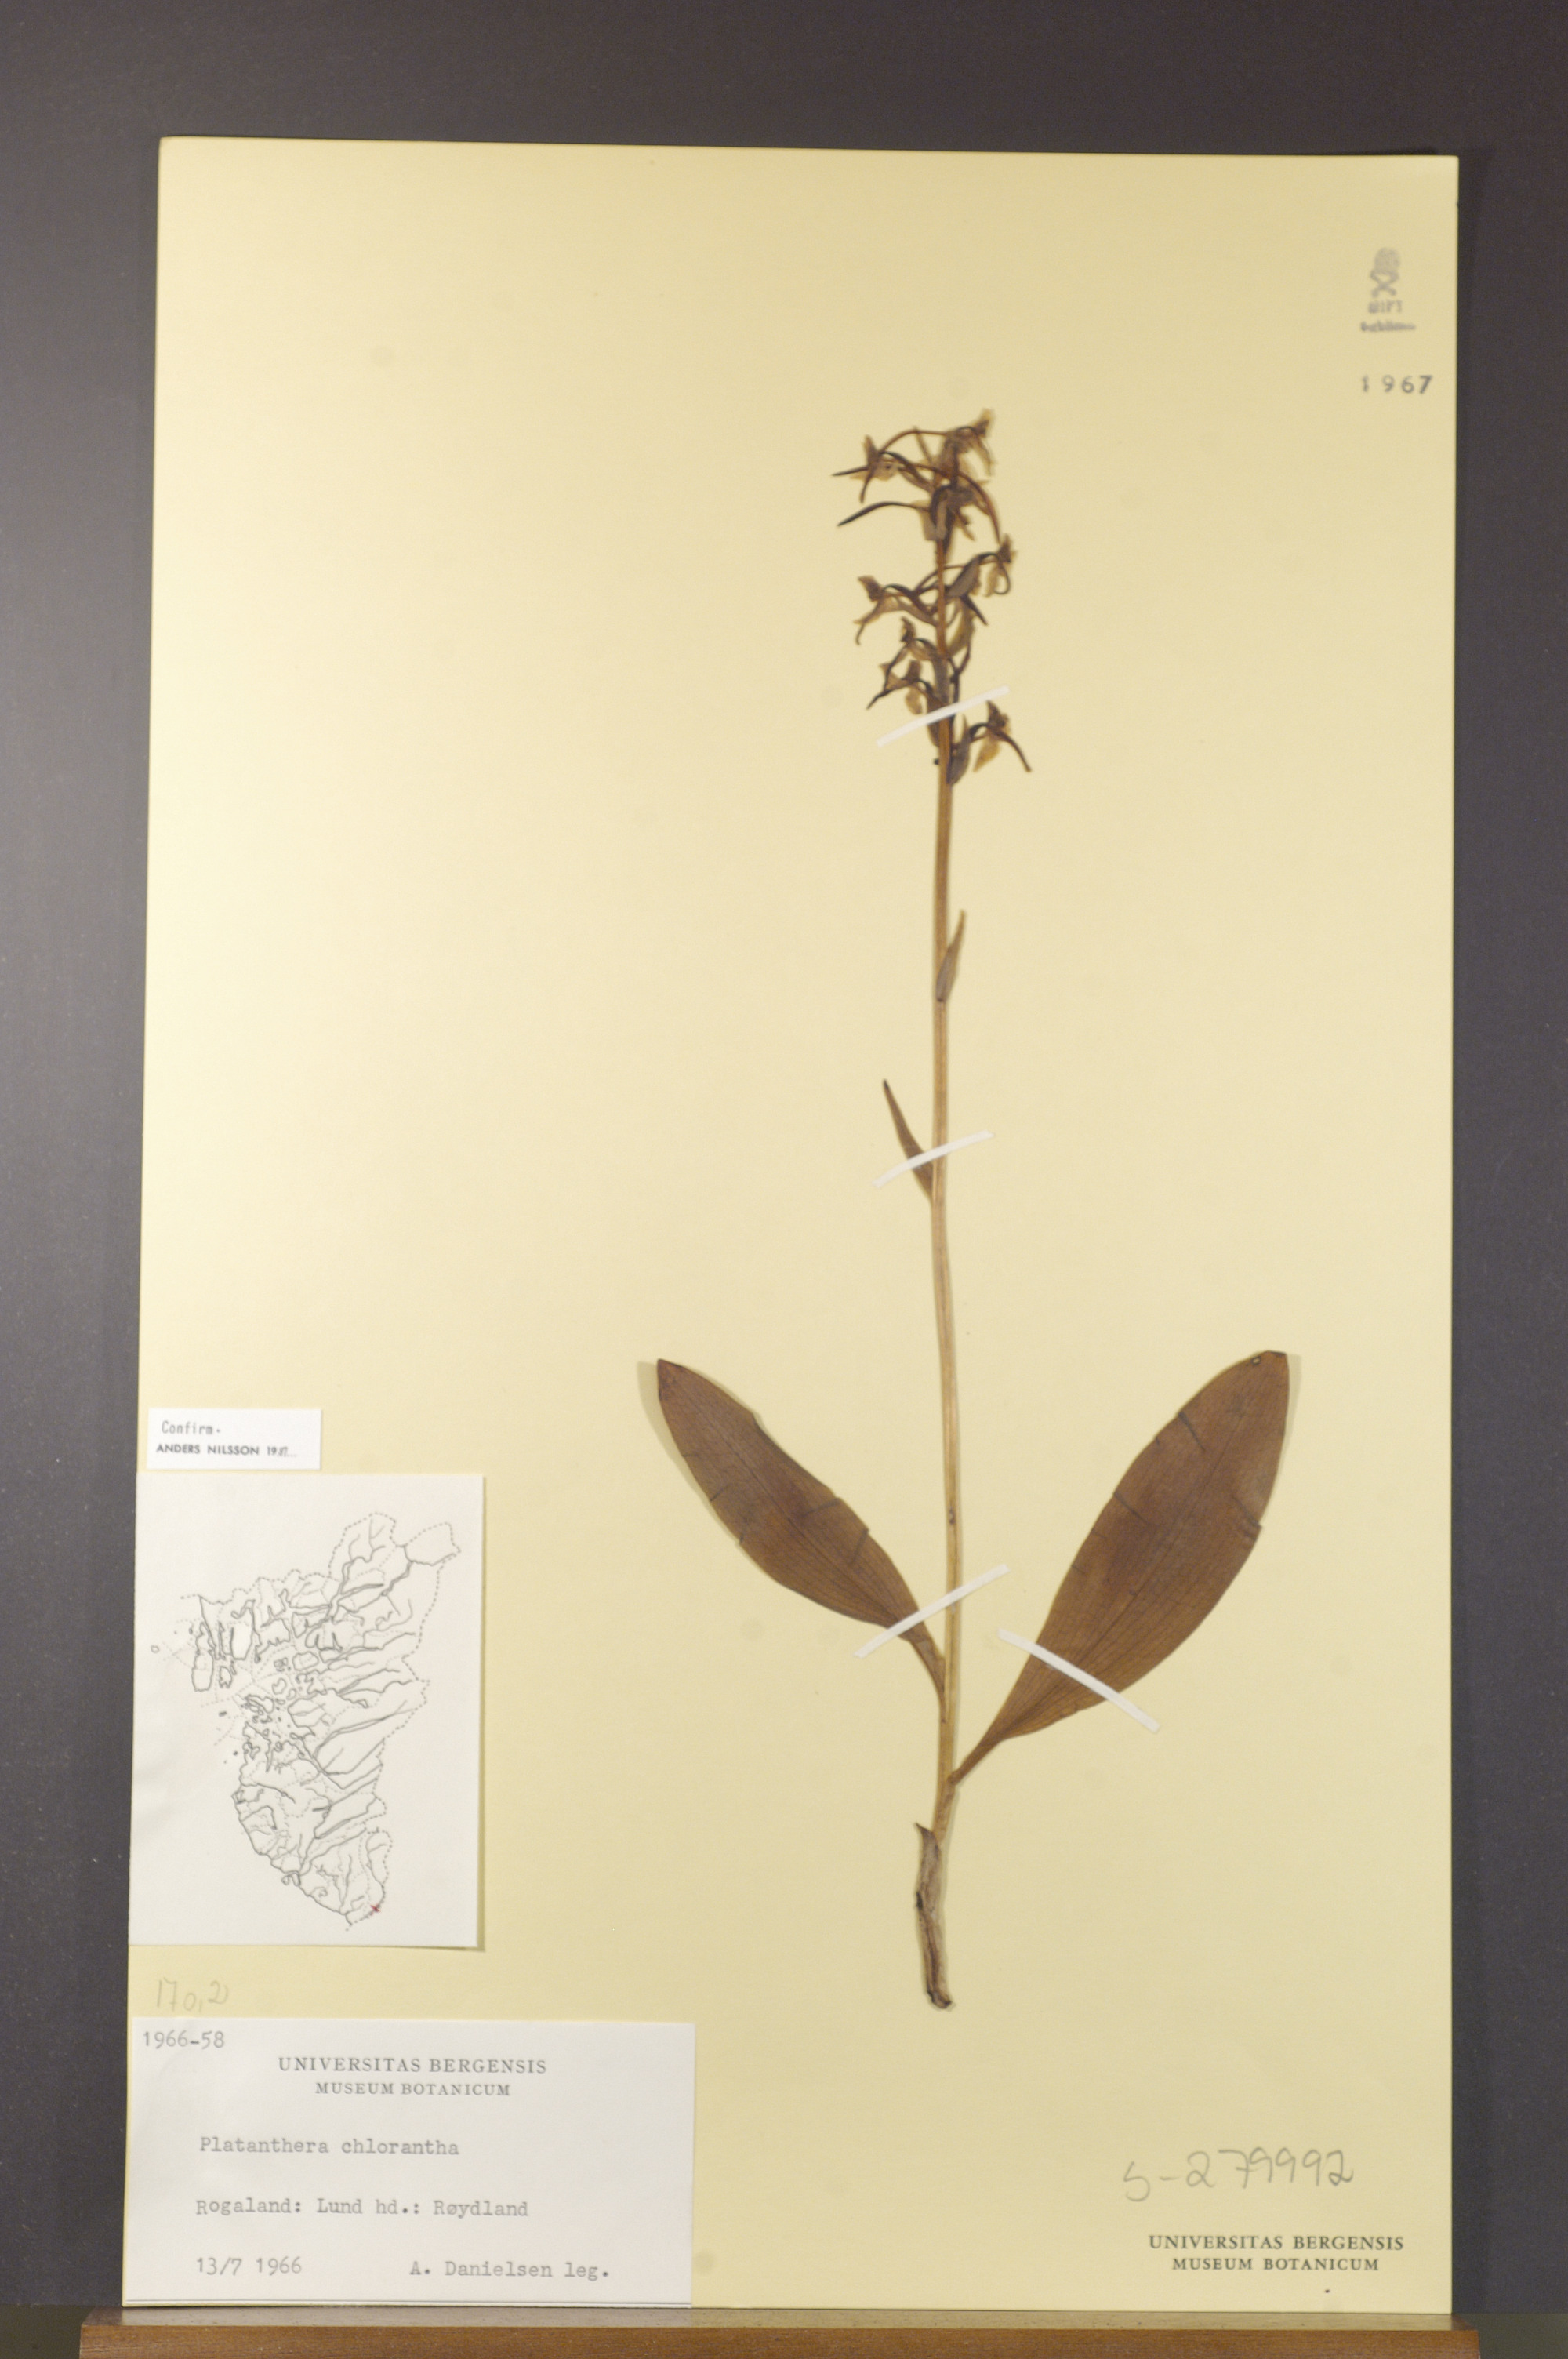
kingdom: Plantae
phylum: Tracheophyta
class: Liliopsida
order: Asparagales
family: Orchidaceae
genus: Platanthera
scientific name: Platanthera chlorantha
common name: Greater butterfly-orchid
